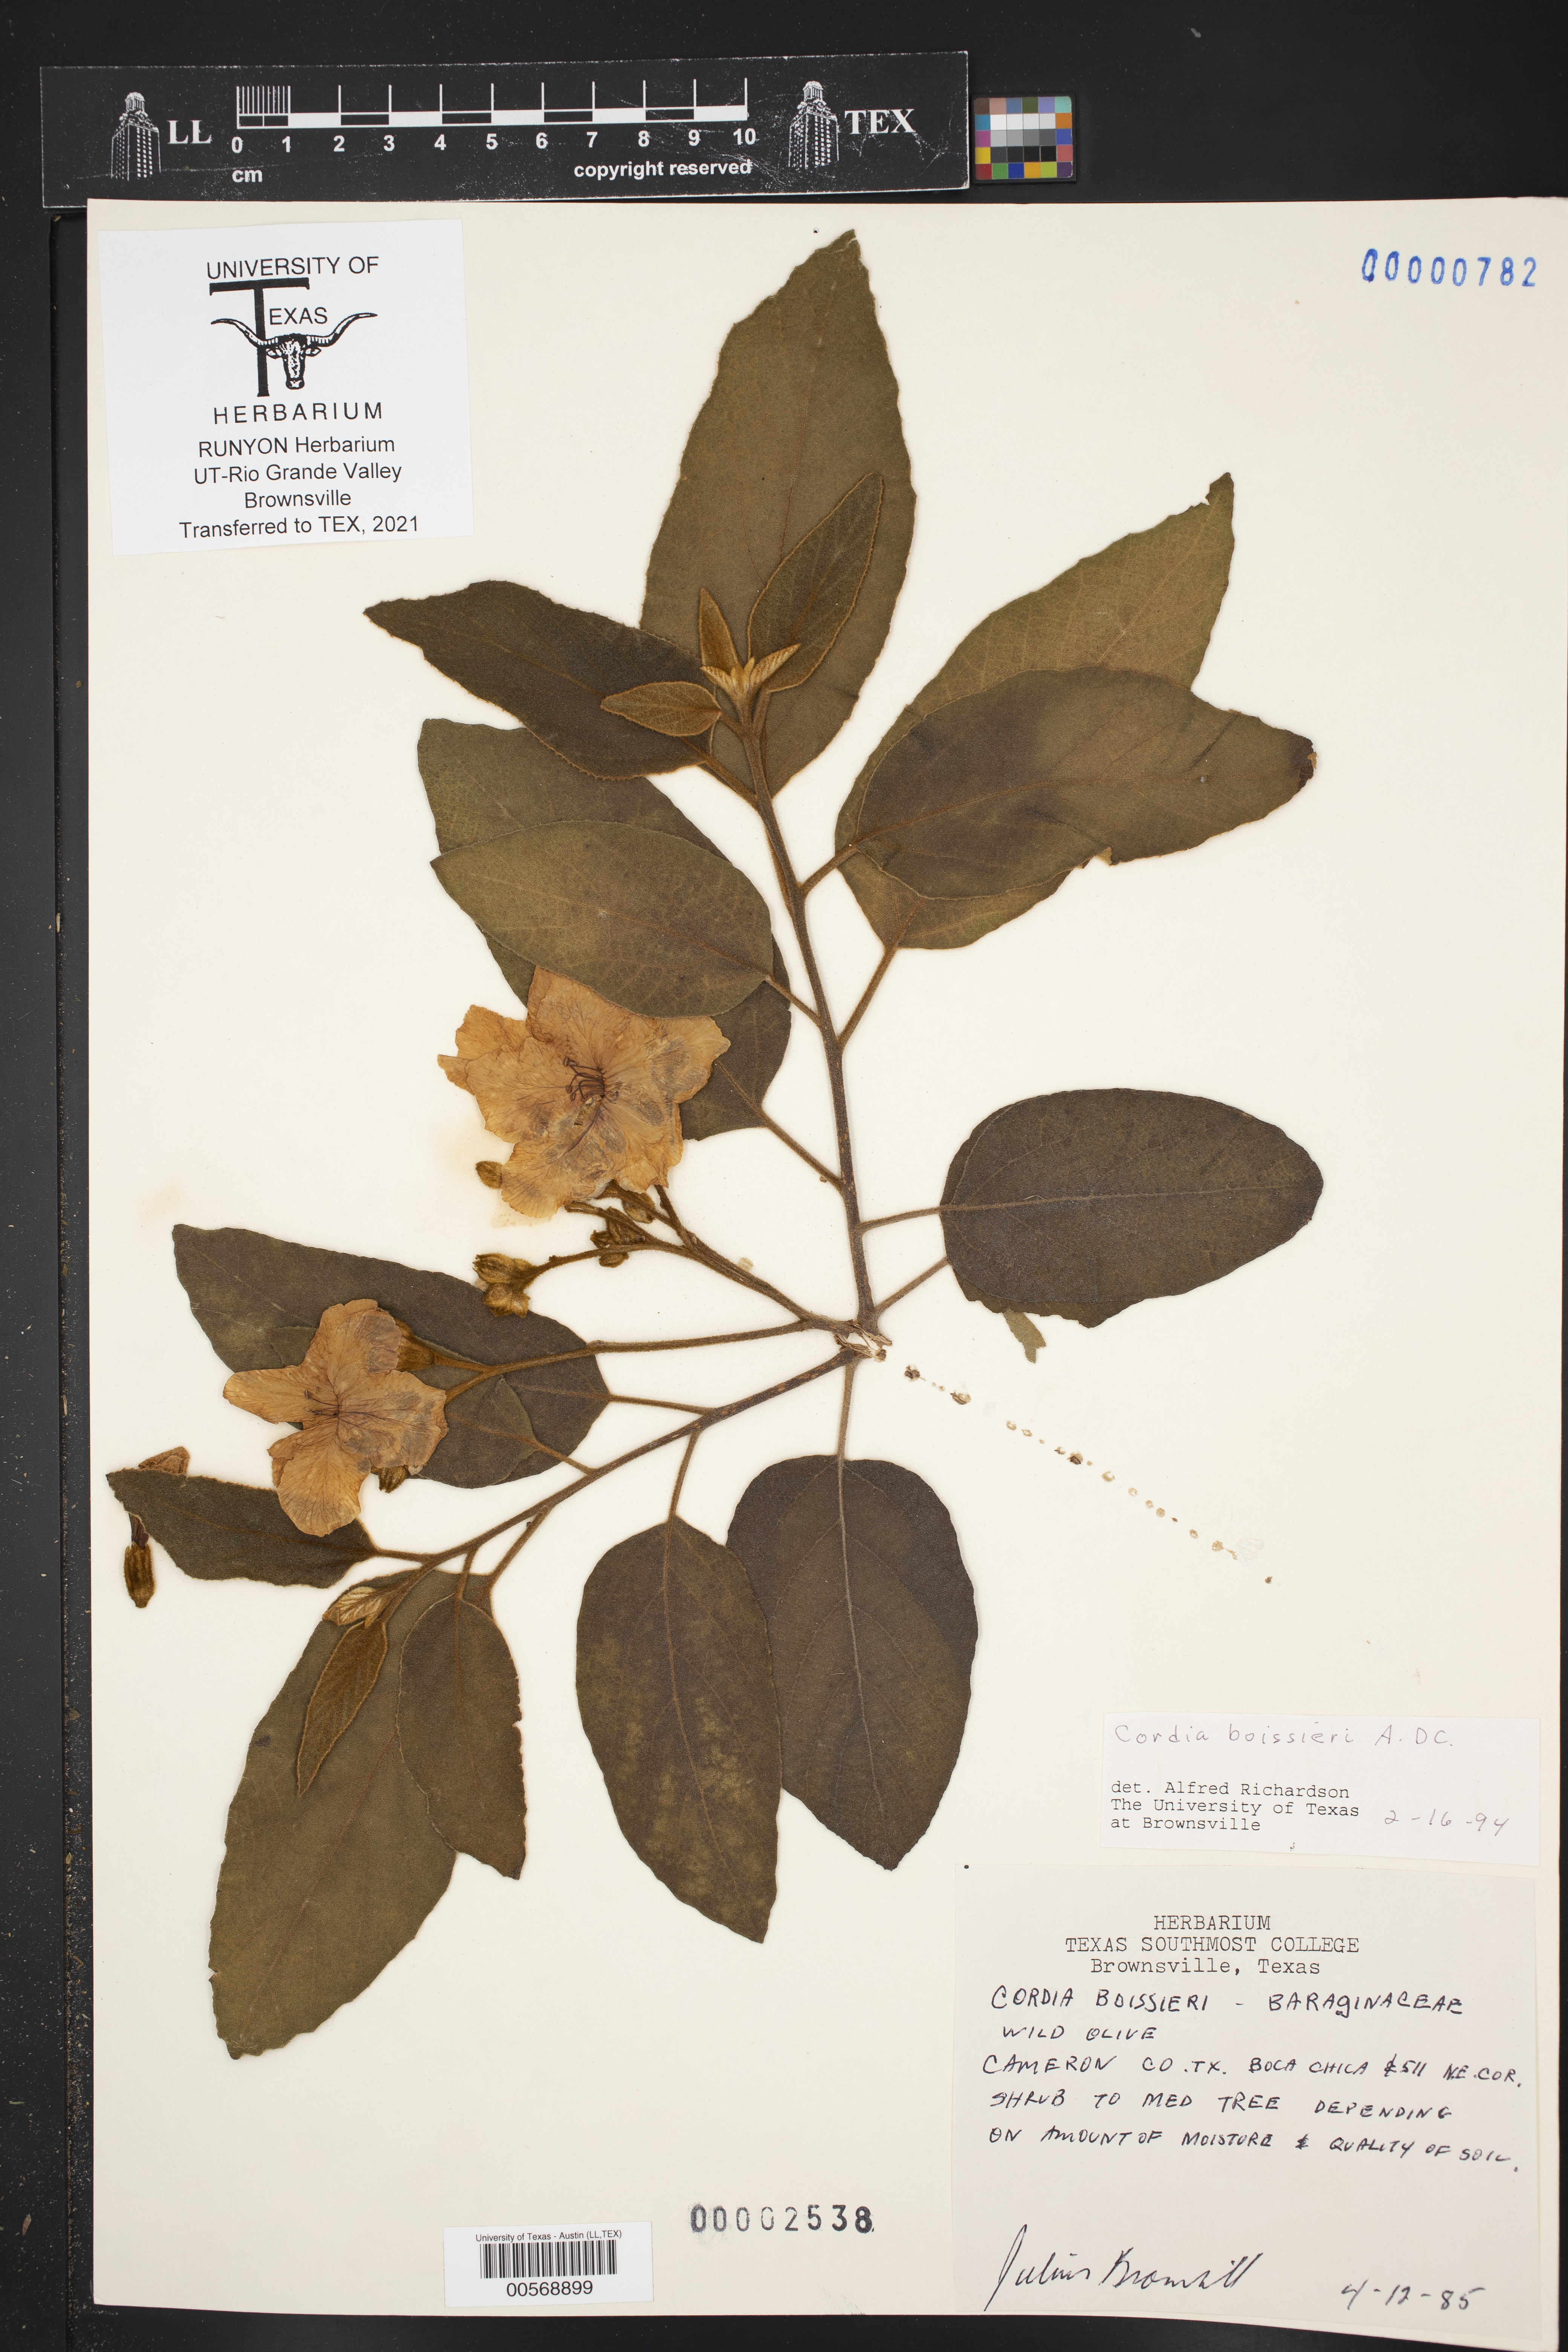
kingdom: Plantae
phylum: Tracheophyta
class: Magnoliopsida
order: Boraginales
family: Cordiaceae
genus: Cordia
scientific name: Cordia boissieri
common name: Mexican-olive
